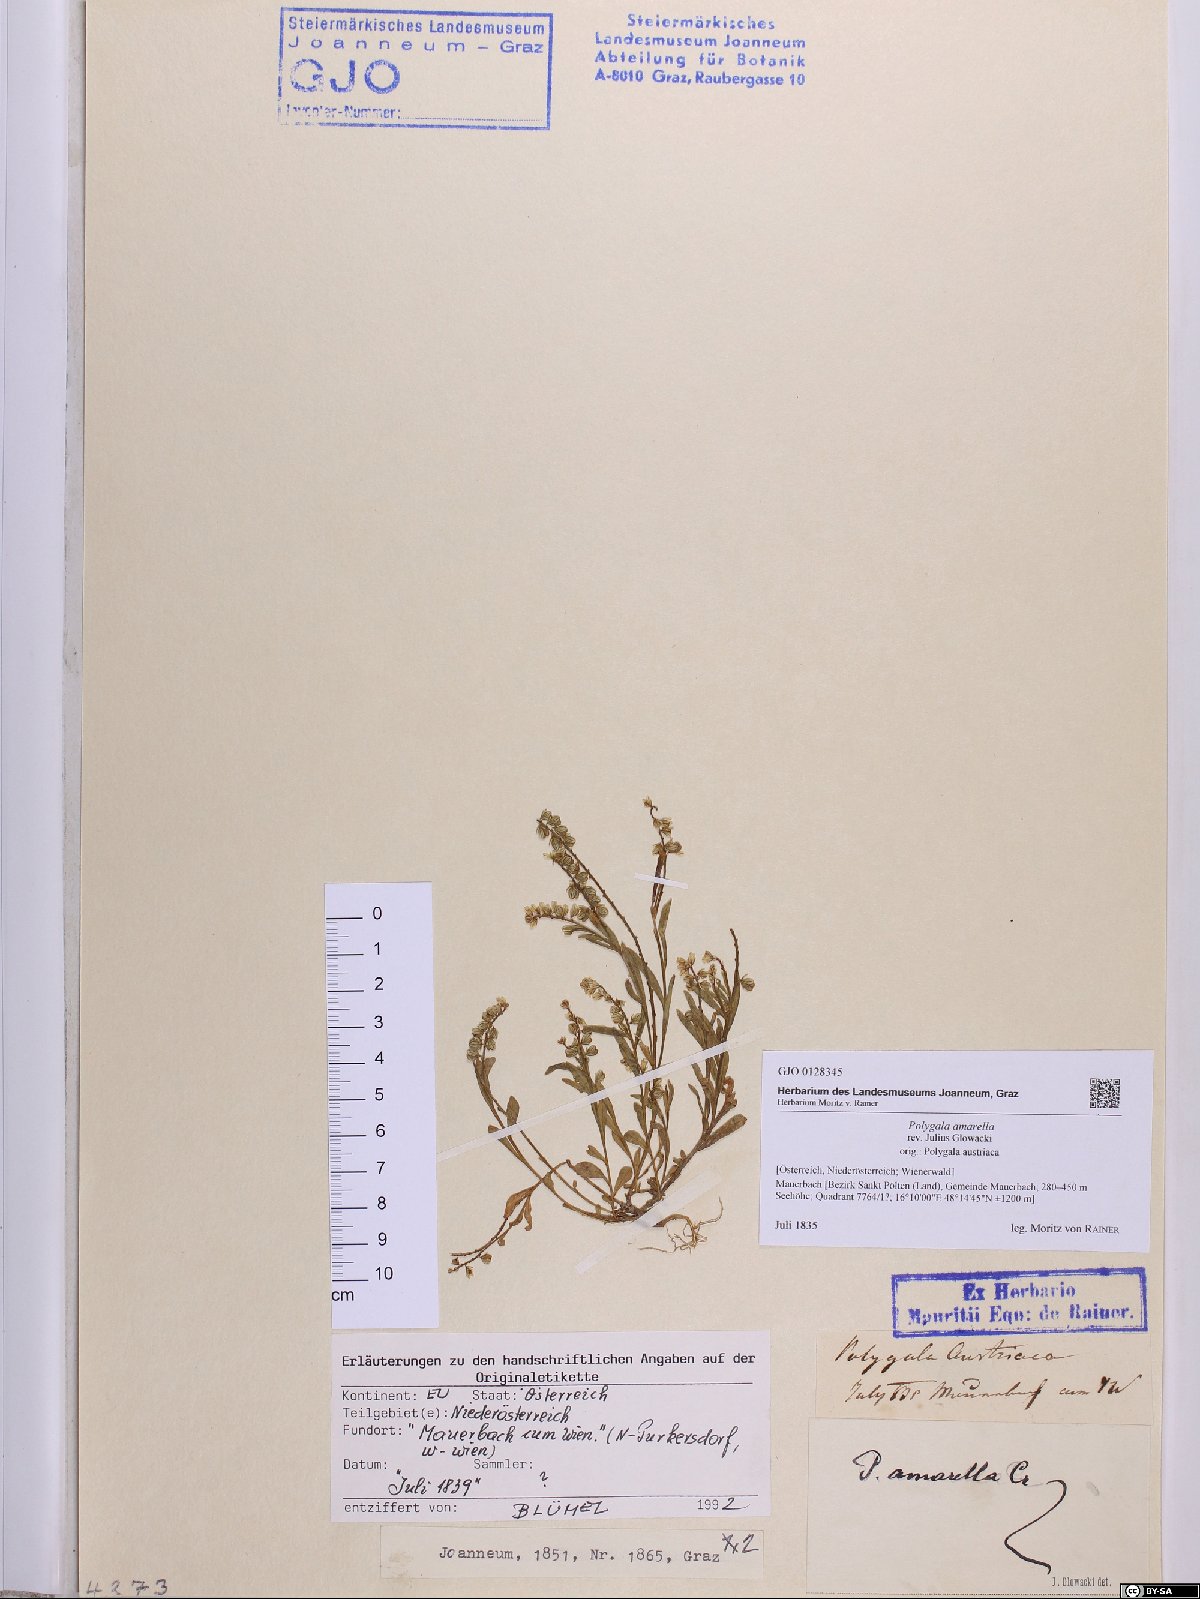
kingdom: Plantae
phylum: Tracheophyta
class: Magnoliopsida
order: Fabales
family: Polygalaceae
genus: Polygala
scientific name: Polygala amarella
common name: Dwarf milkwort
